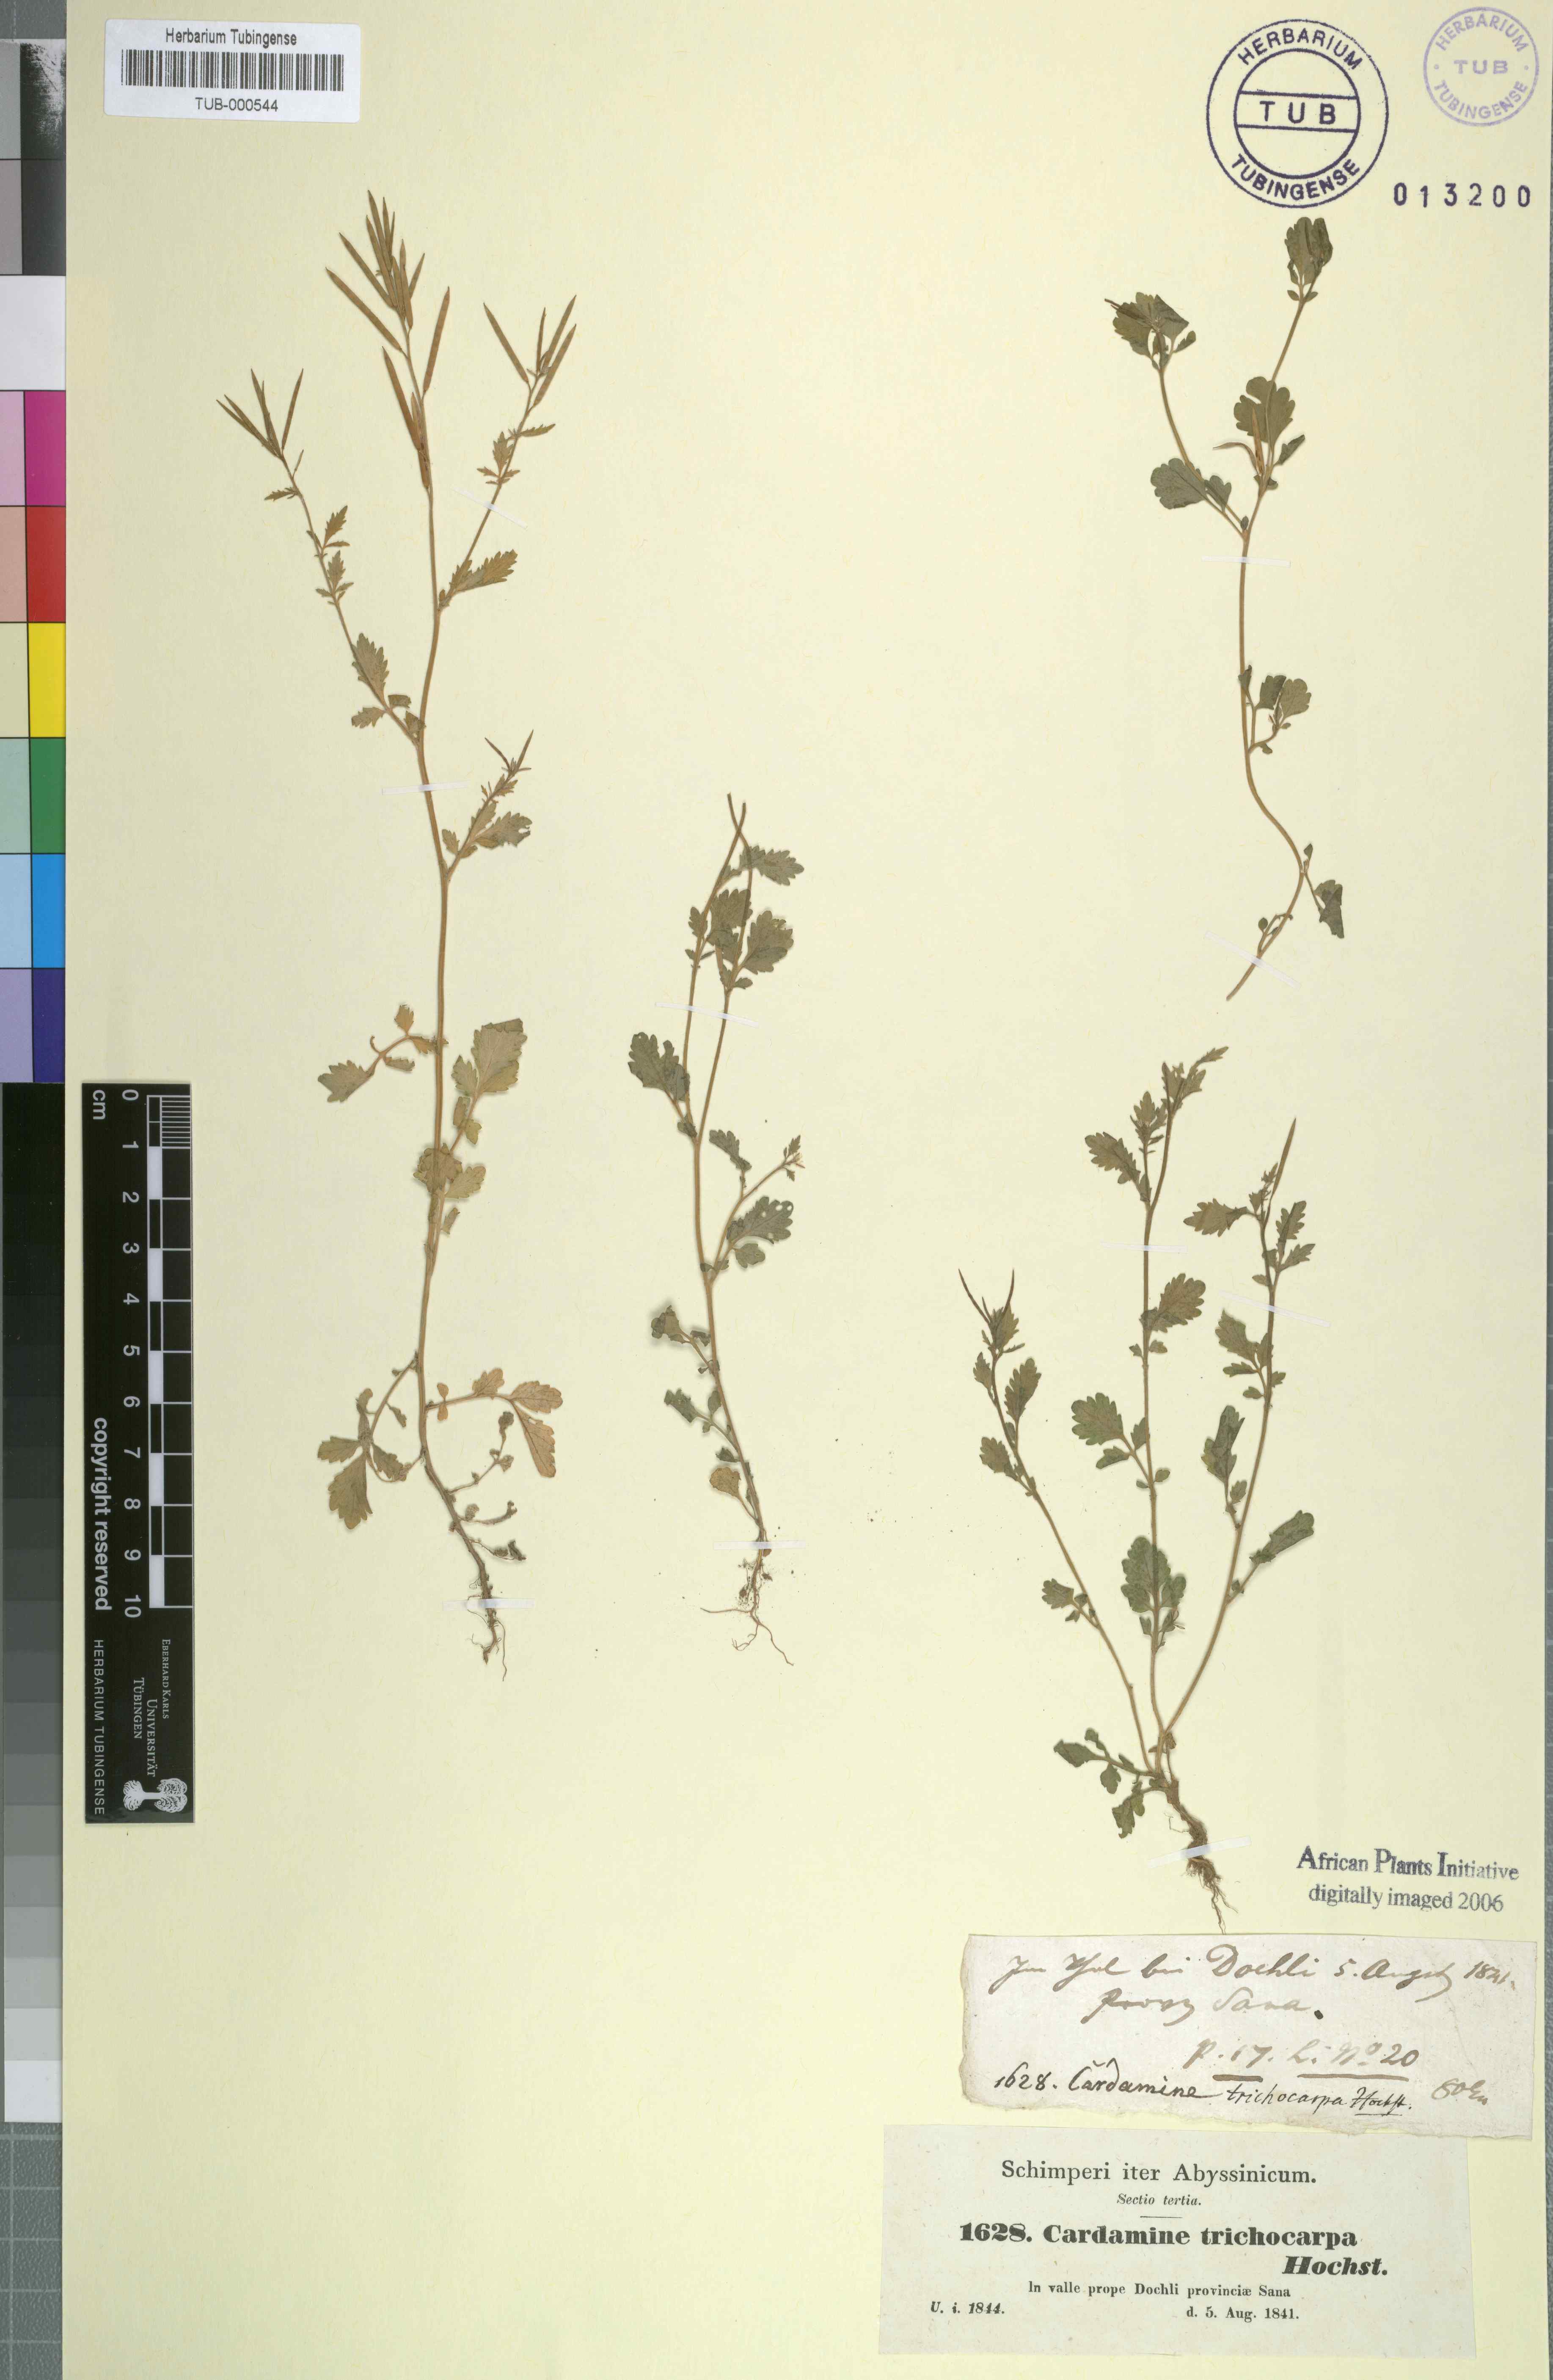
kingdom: Plantae
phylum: Tracheophyta
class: Magnoliopsida
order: Brassicales
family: Brassicaceae
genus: Cardamine
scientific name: Cardamine graeca
